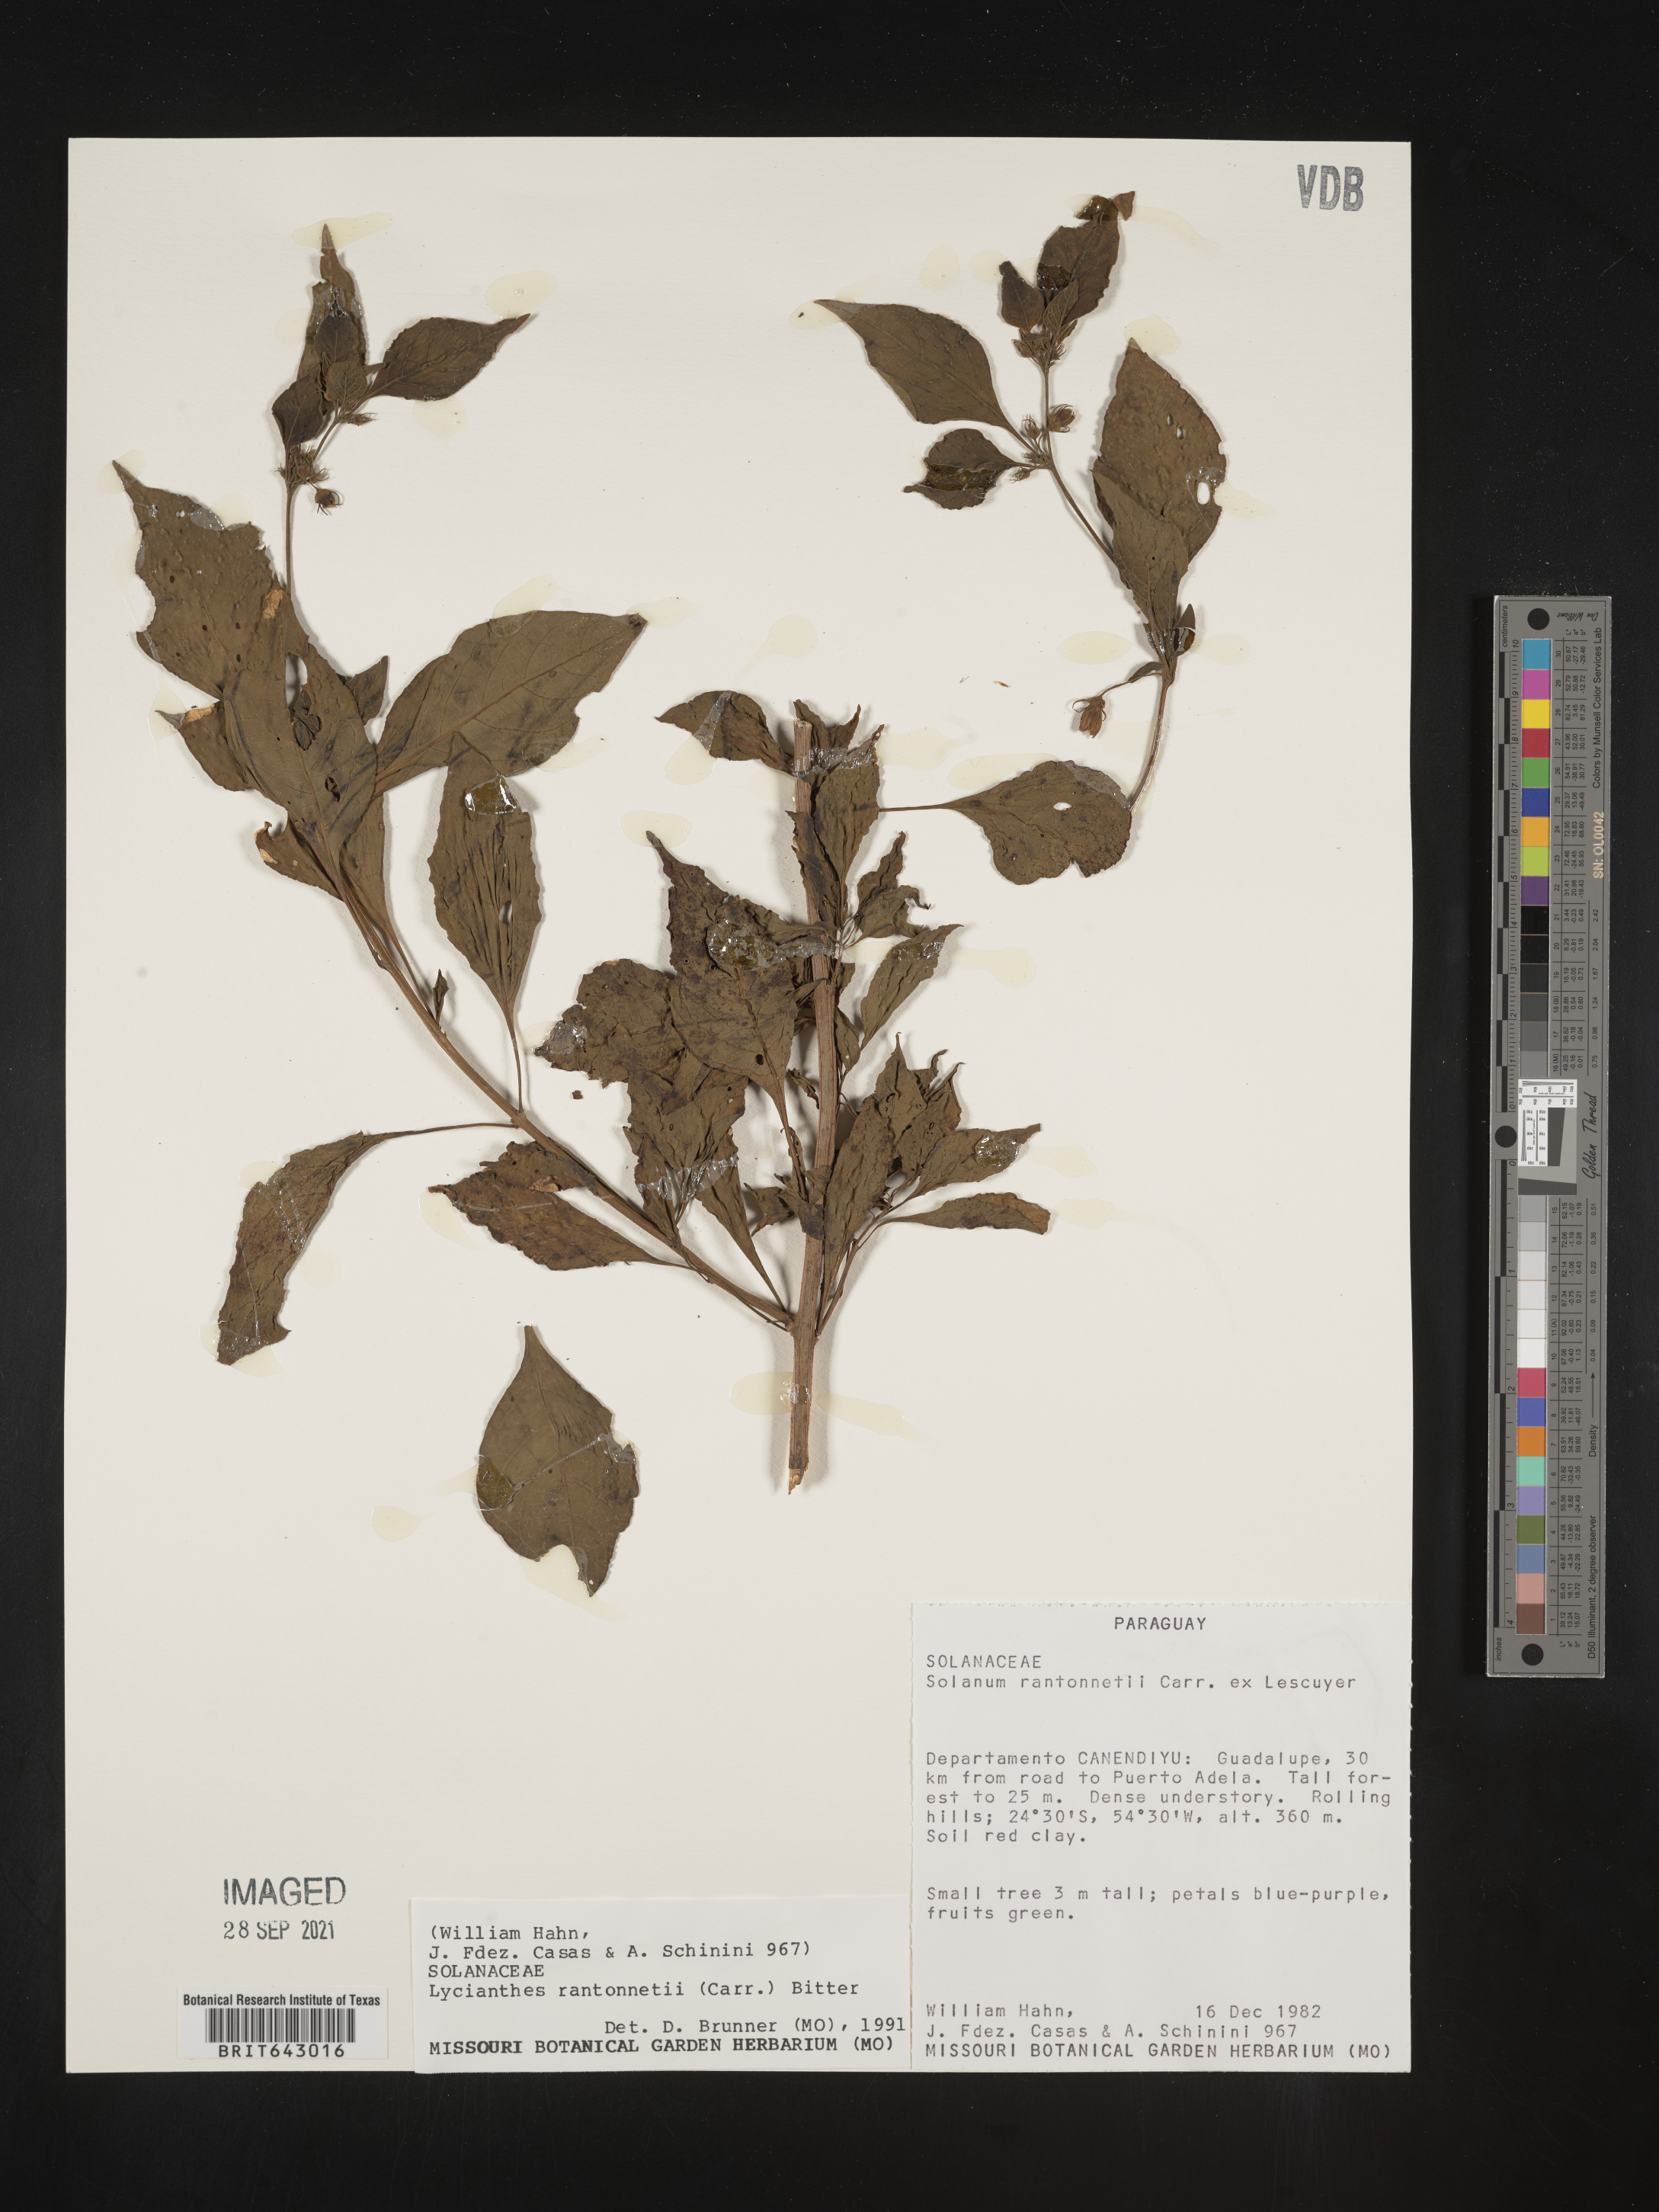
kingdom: Plantae
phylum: Tracheophyta
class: Magnoliopsida
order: Solanales
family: Solanaceae
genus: Lycianthes
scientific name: Lycianthes
